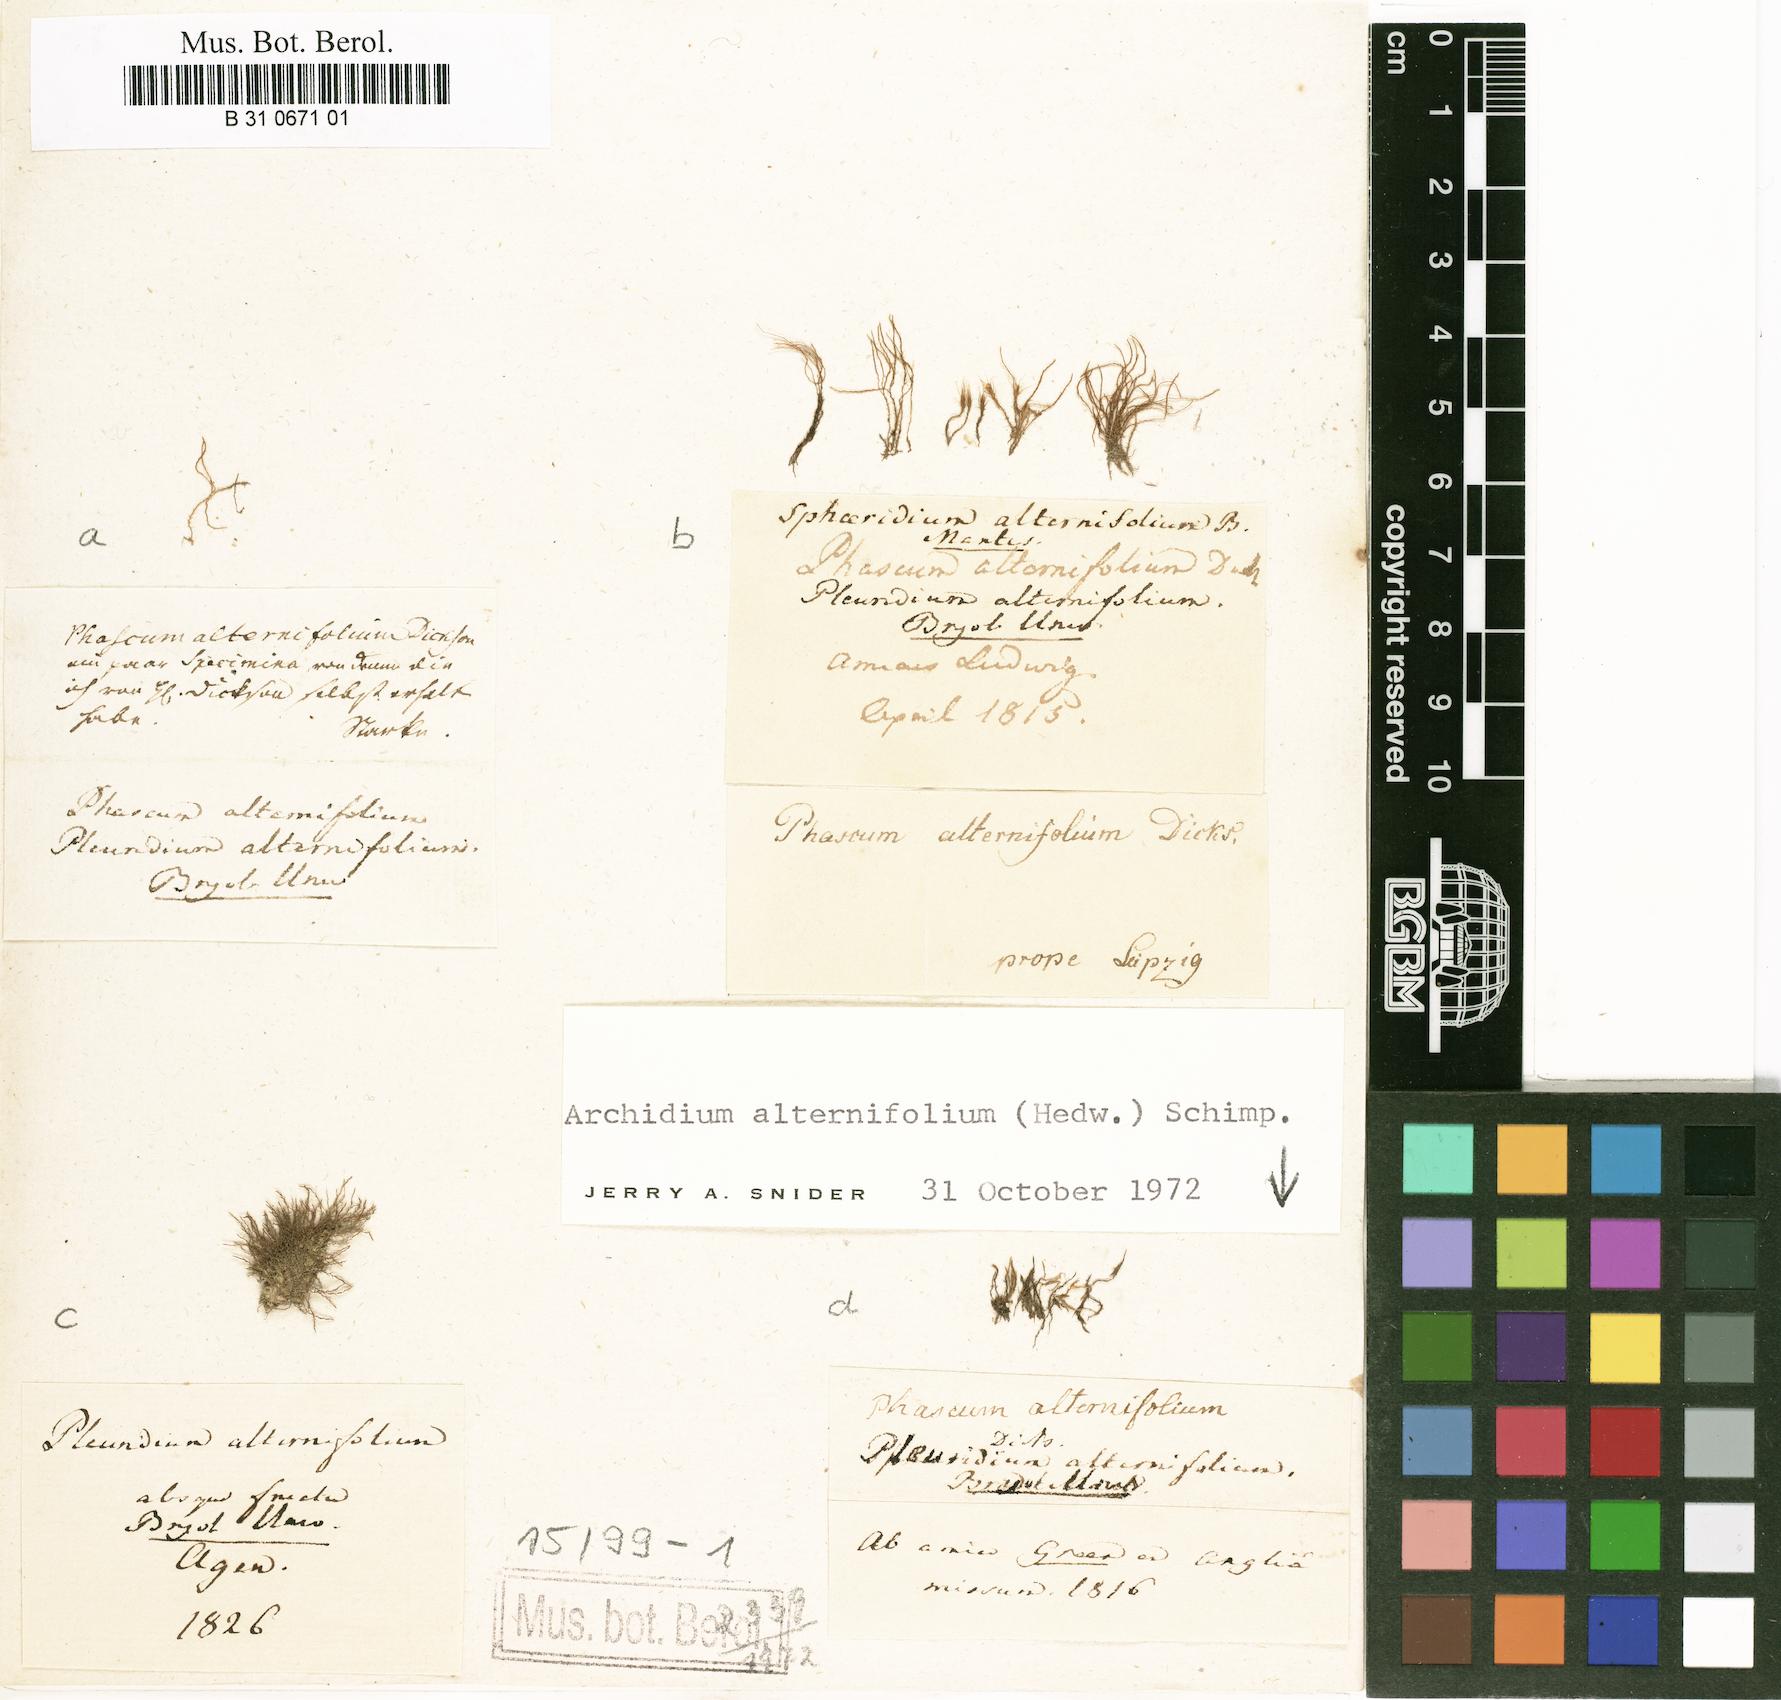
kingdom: Plantae
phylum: Bryophyta
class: Bryopsida
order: Archidiales
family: Archidiaceae
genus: Archidium
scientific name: Archidium alternifolium
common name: Clay earth-moss
